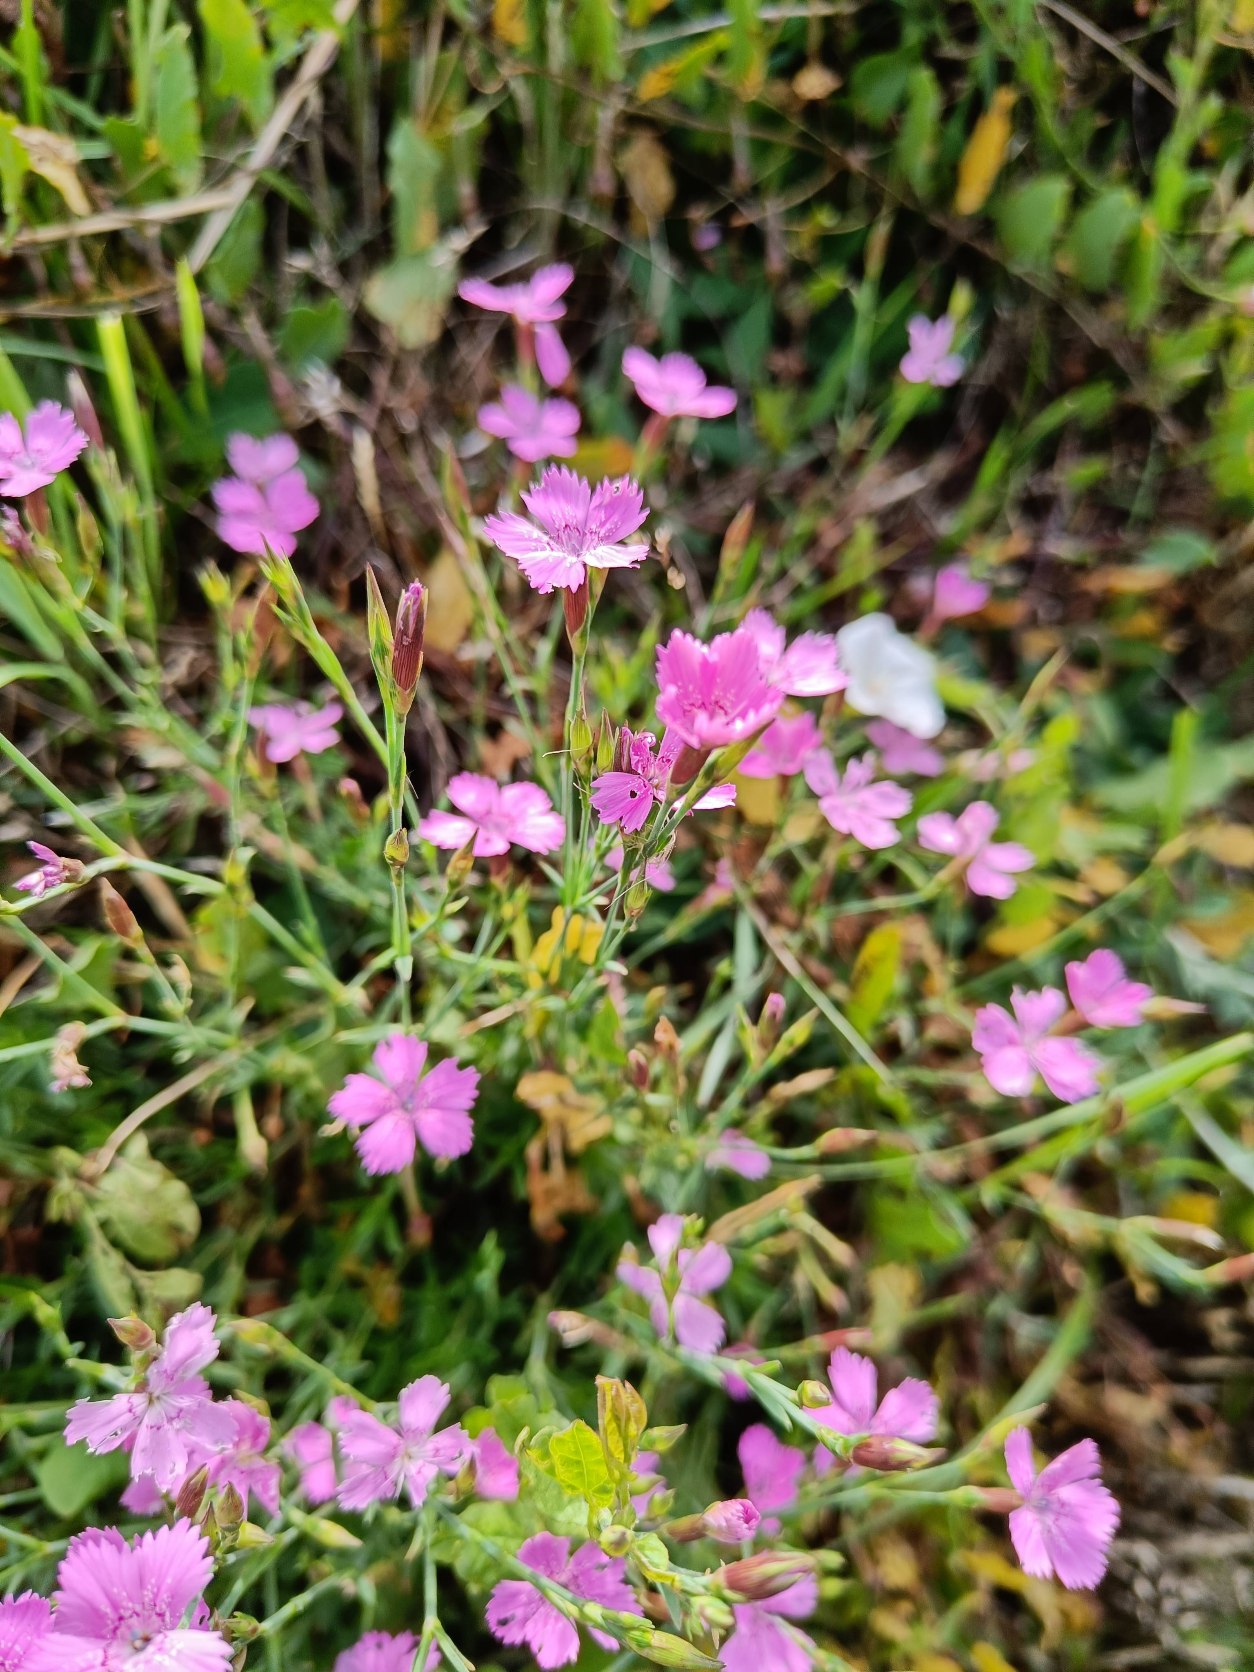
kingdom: Plantae
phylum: Tracheophyta
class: Magnoliopsida
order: Caryophyllales
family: Caryophyllaceae
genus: Dianthus
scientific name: Dianthus deltoides
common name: Bakke-nellike
